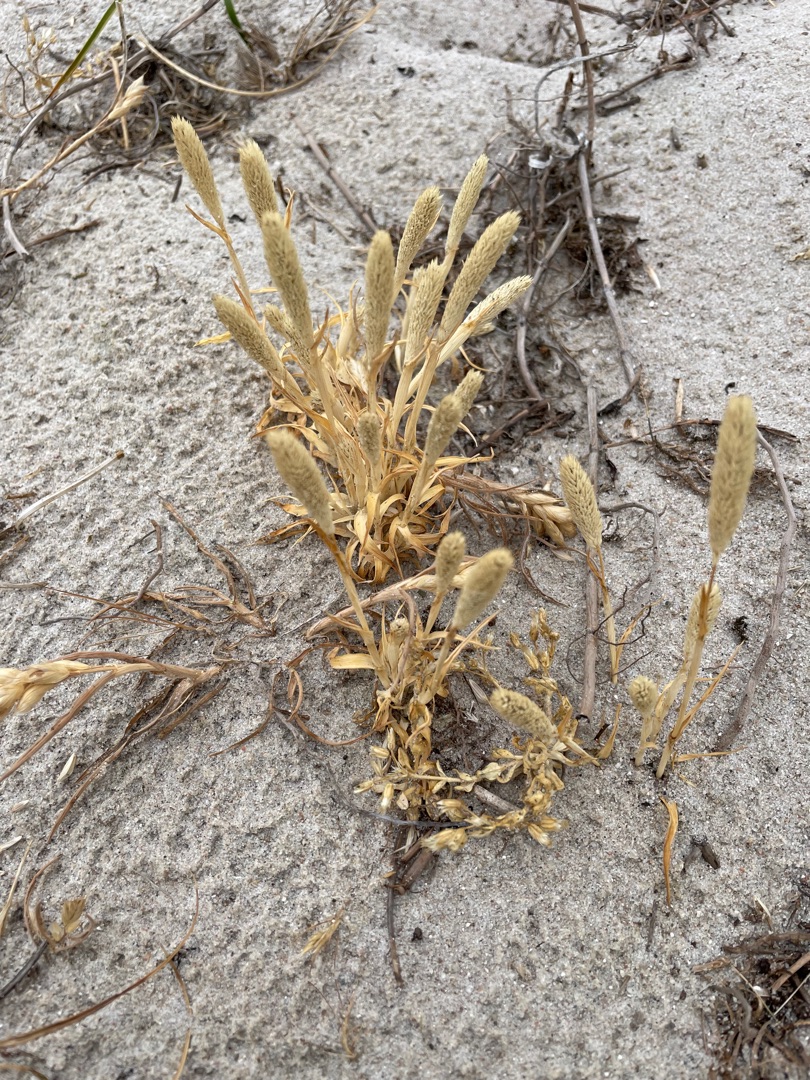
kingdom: Plantae
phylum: Tracheophyta
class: Liliopsida
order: Poales
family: Poaceae
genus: Phleum
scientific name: Phleum arenarium
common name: Sand-rottehale
